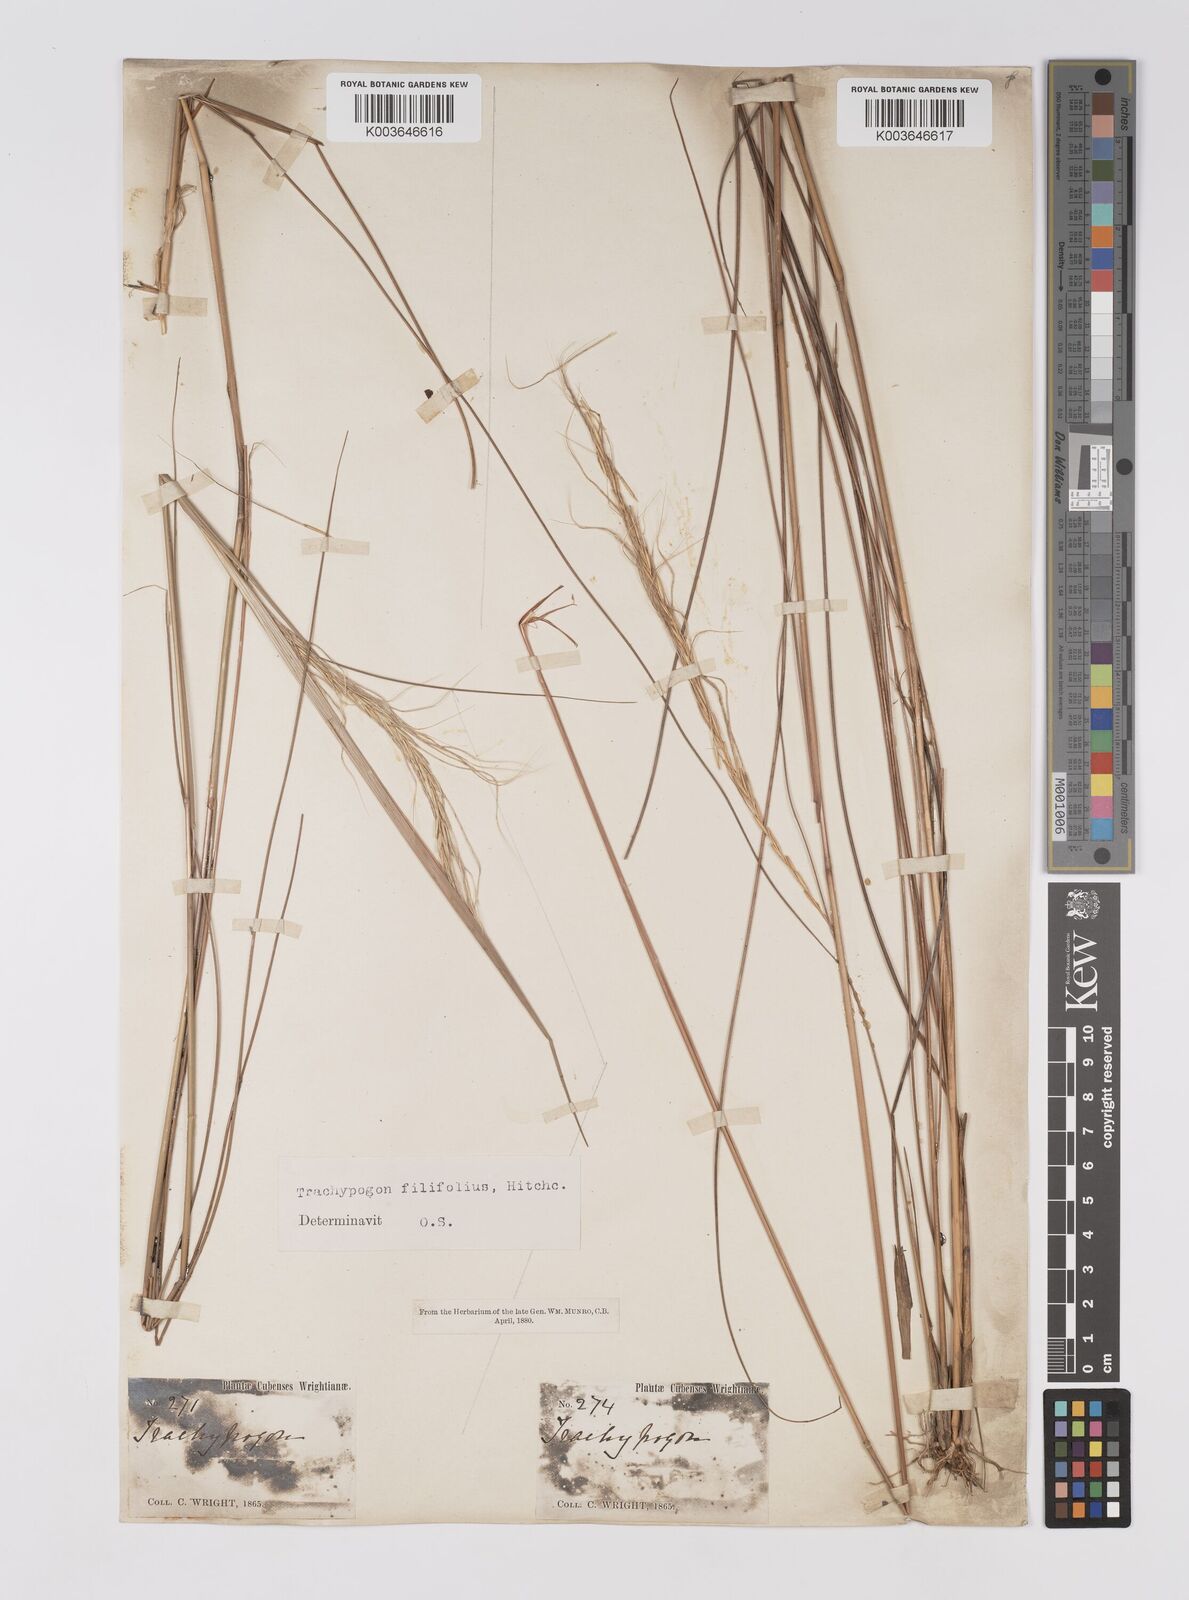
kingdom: Plantae
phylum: Tracheophyta
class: Liliopsida
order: Poales
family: Poaceae
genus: Trachypogon
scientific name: Trachypogon macroglossus
